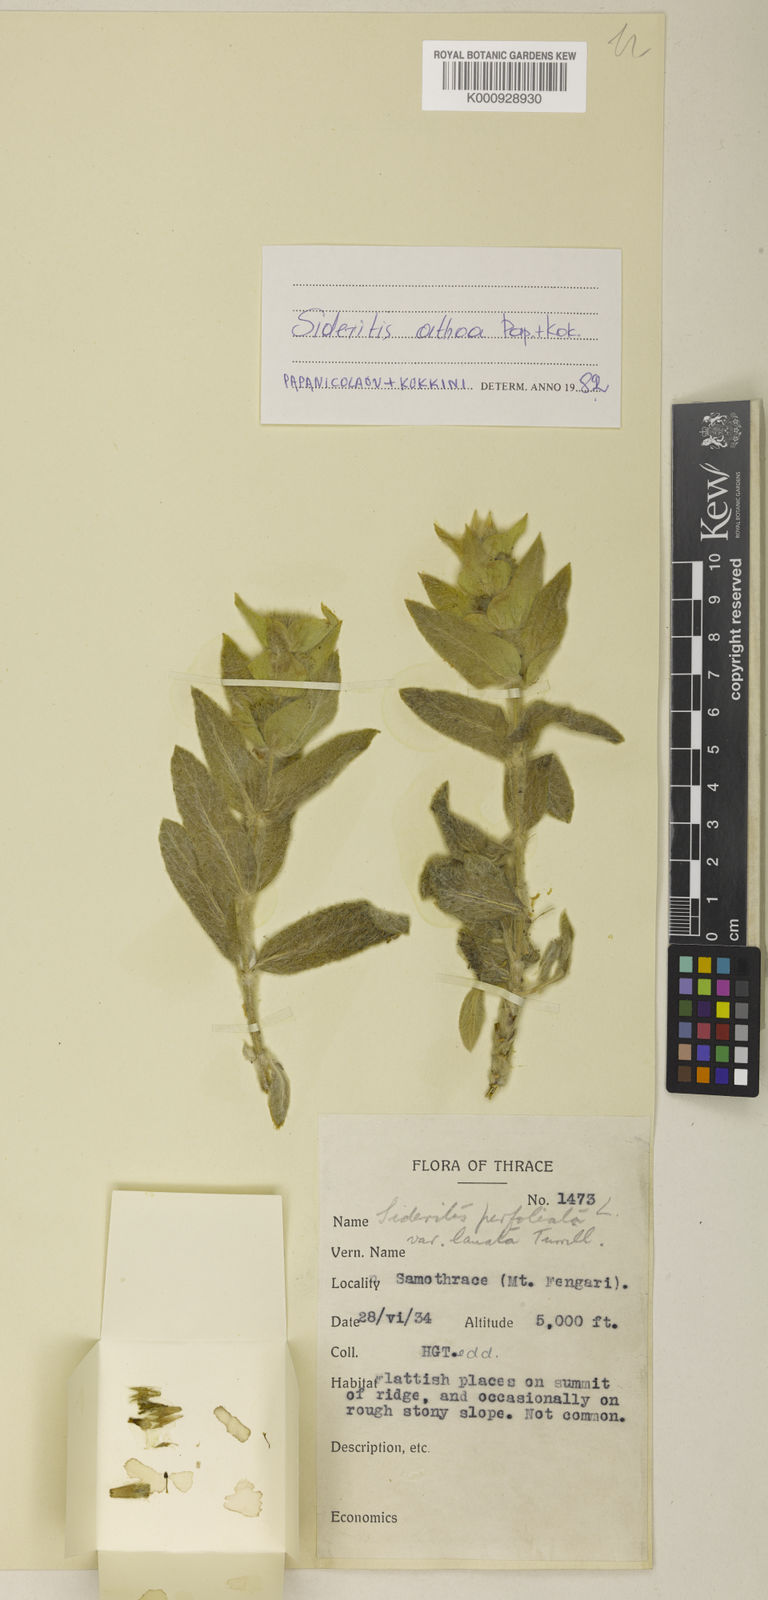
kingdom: Plantae
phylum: Tracheophyta
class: Magnoliopsida
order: Lamiales
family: Lamiaceae
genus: Sideritis
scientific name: Sideritis perfoliata
